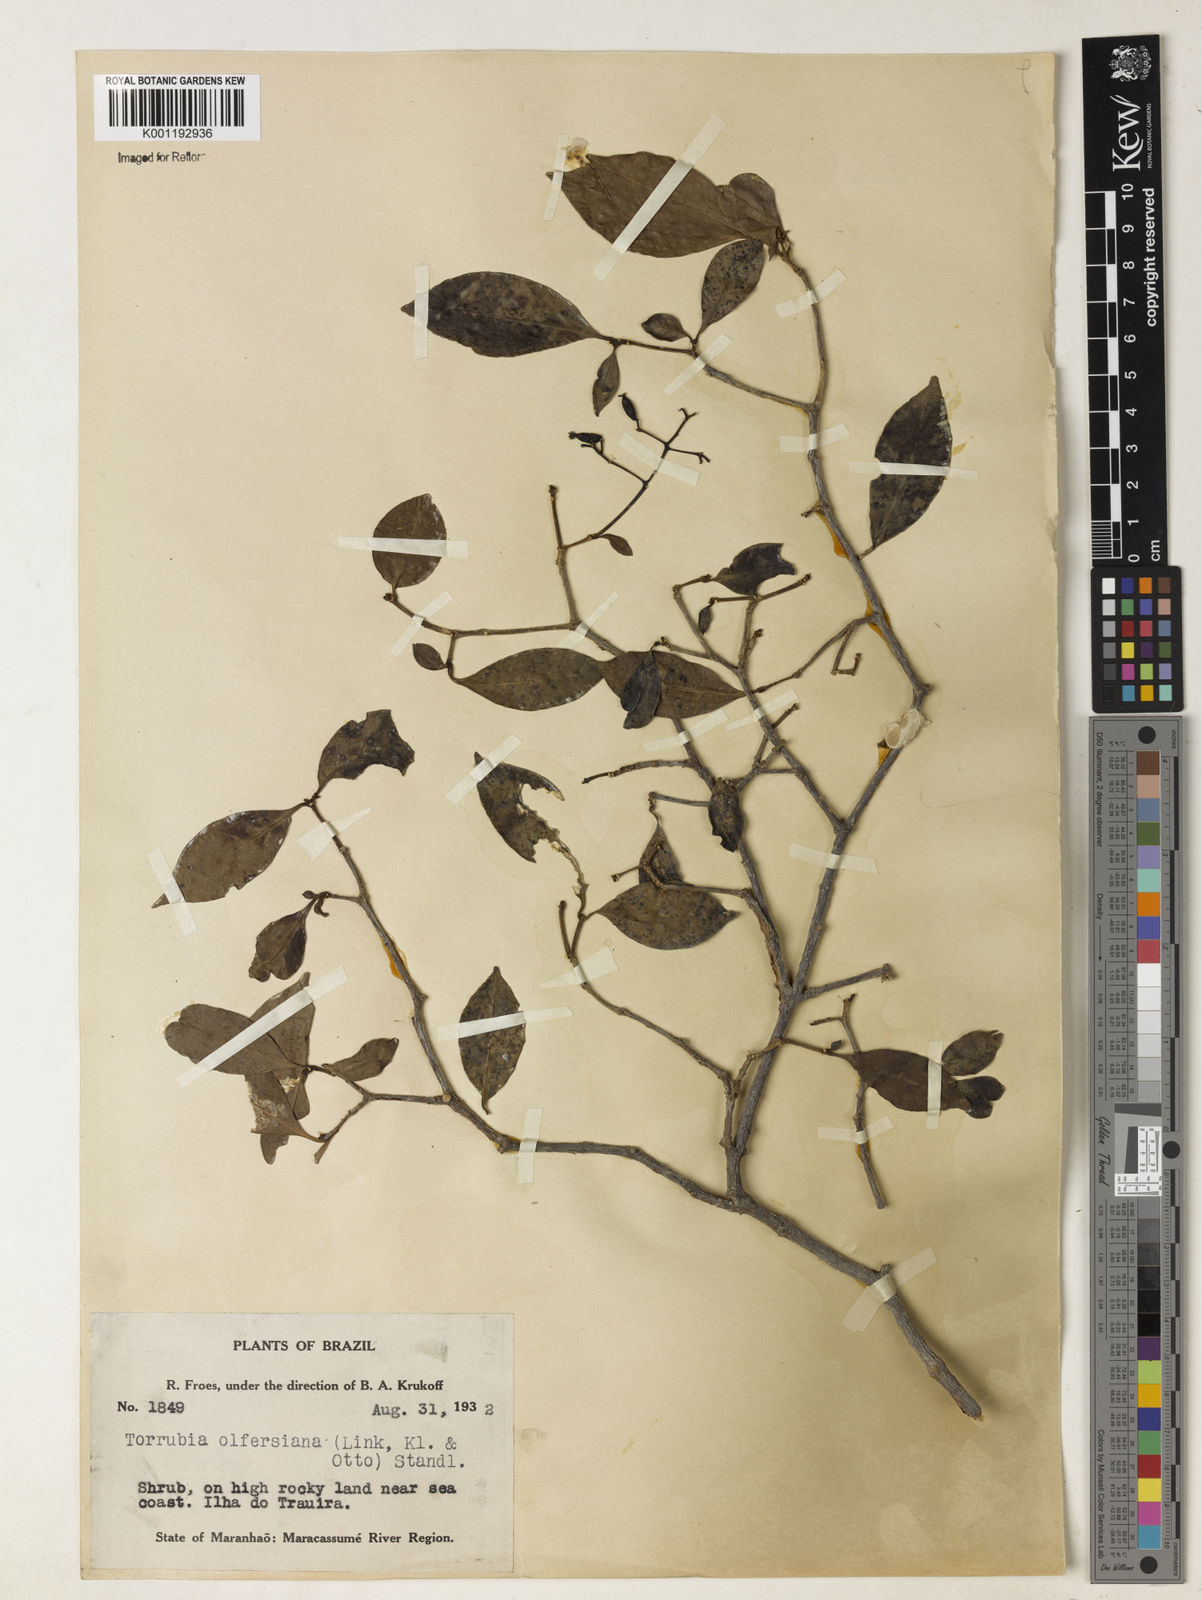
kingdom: Plantae
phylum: Tracheophyta
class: Magnoliopsida
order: Caryophyllales
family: Nyctaginaceae
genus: Guapira
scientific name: Guapira
